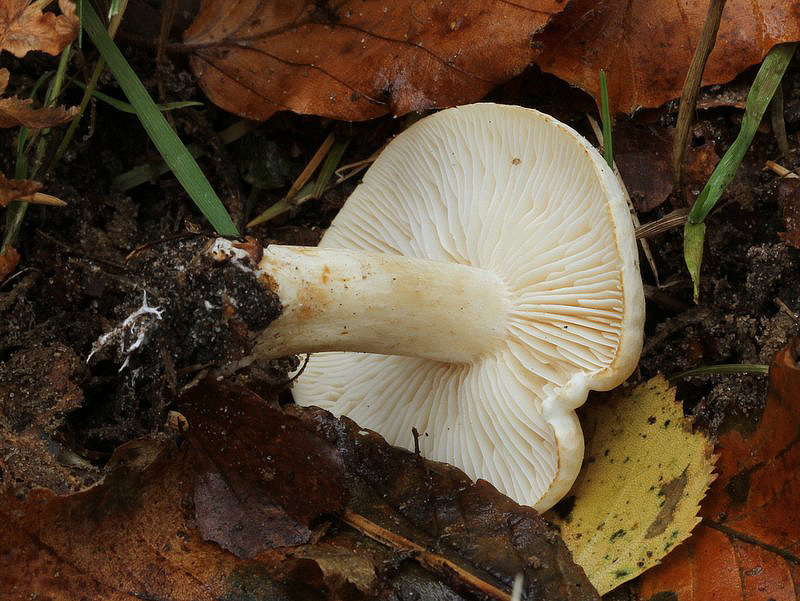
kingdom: Fungi
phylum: Basidiomycota
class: Agaricomycetes
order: Agaricales
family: Tricholomataceae
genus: Tricholoma
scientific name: Tricholoma stiparophyllum
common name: hvid ridderhat
